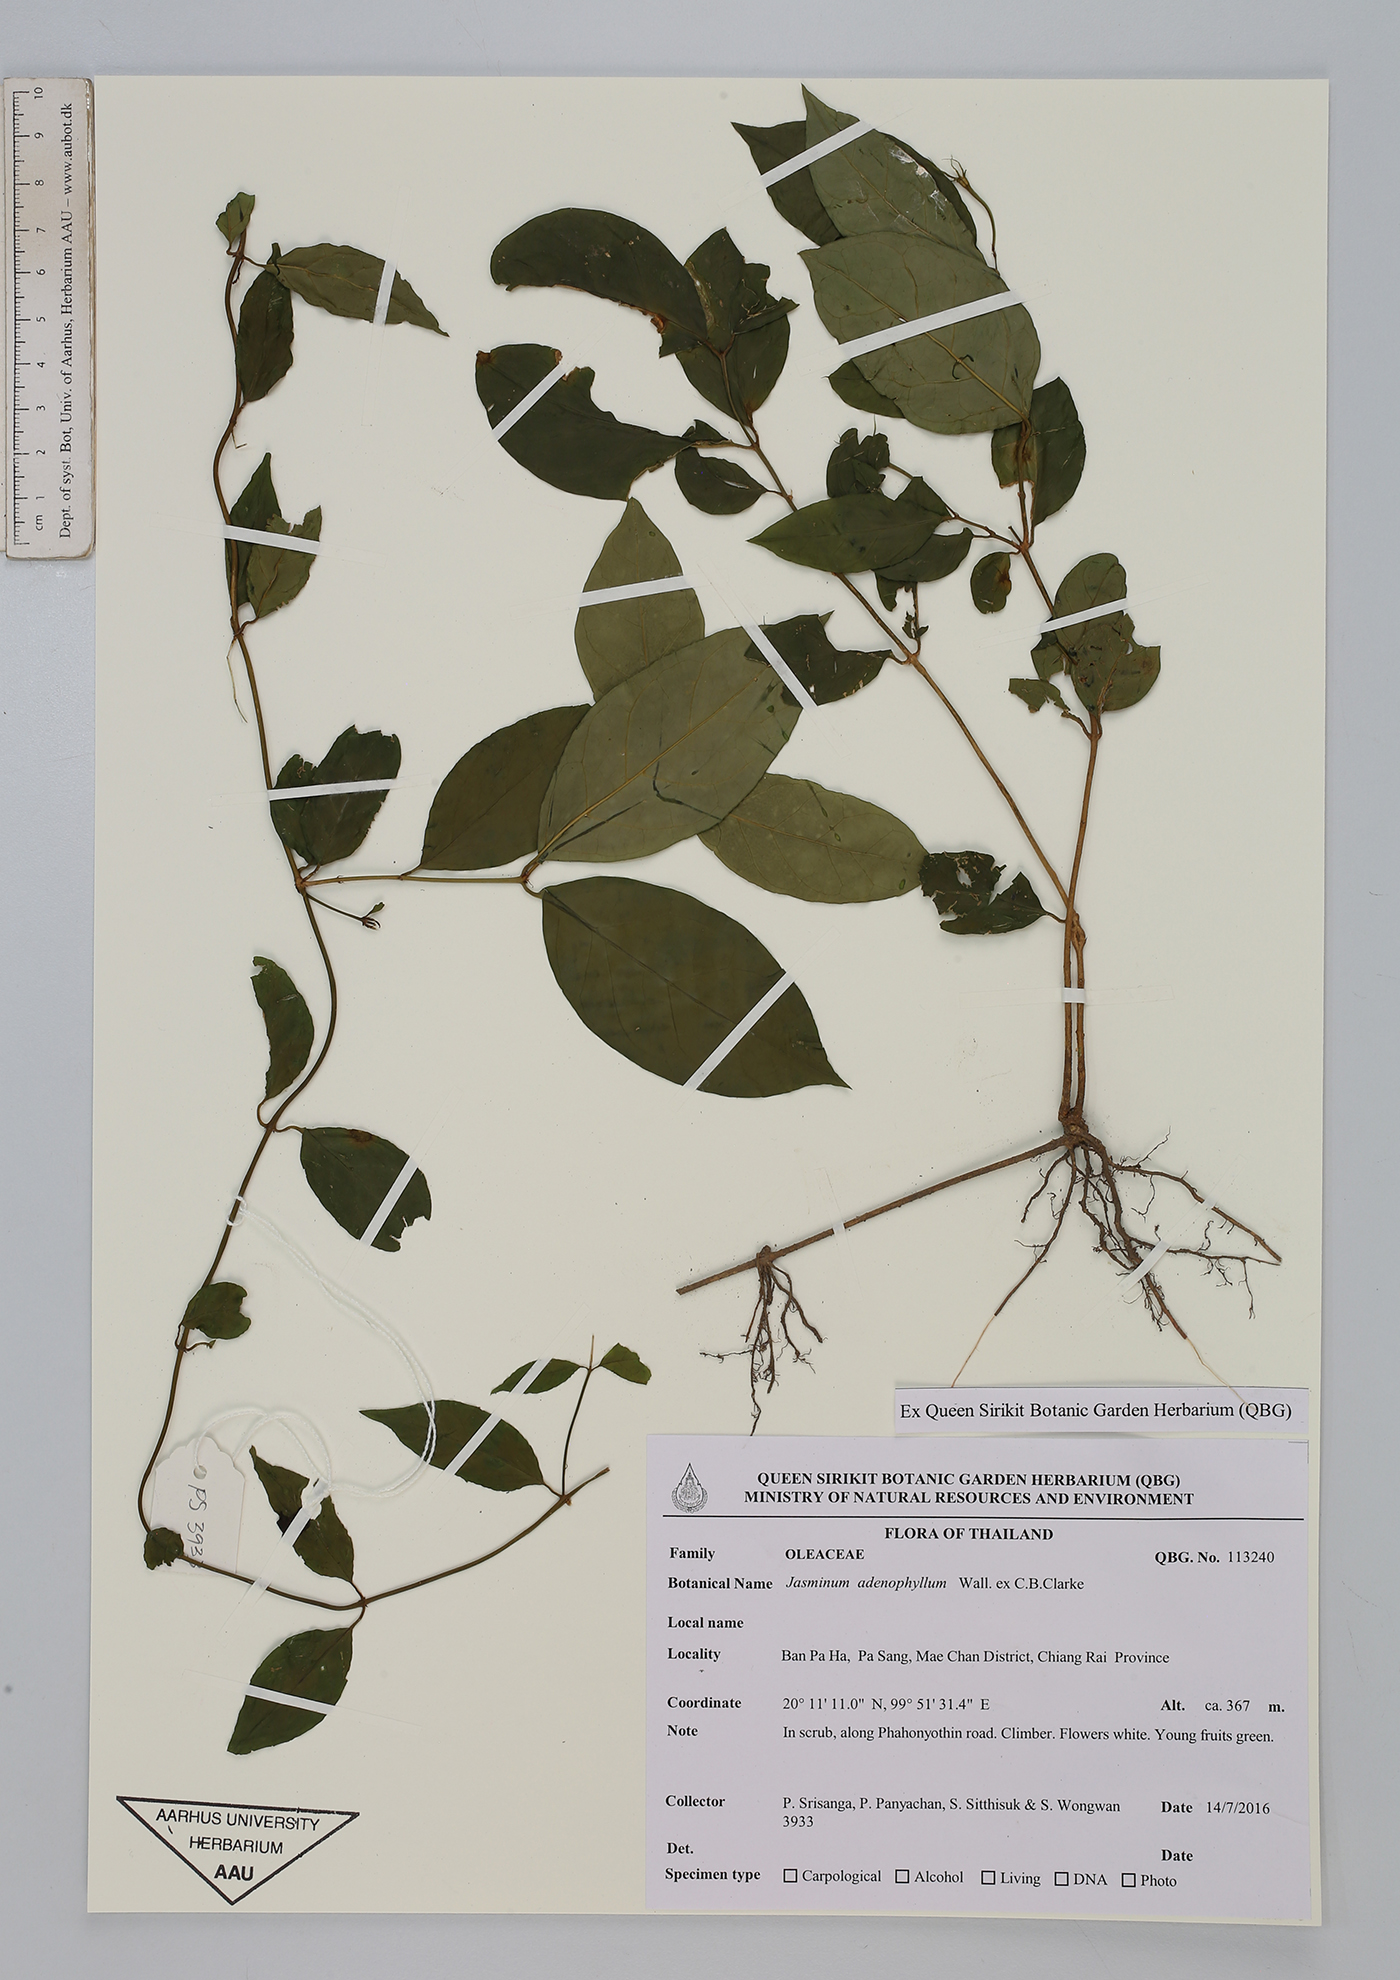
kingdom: Plantae
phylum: Tracheophyta
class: Magnoliopsida
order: Lamiales
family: Oleaceae
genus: Jasminum
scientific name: Jasminum adenophyllum
